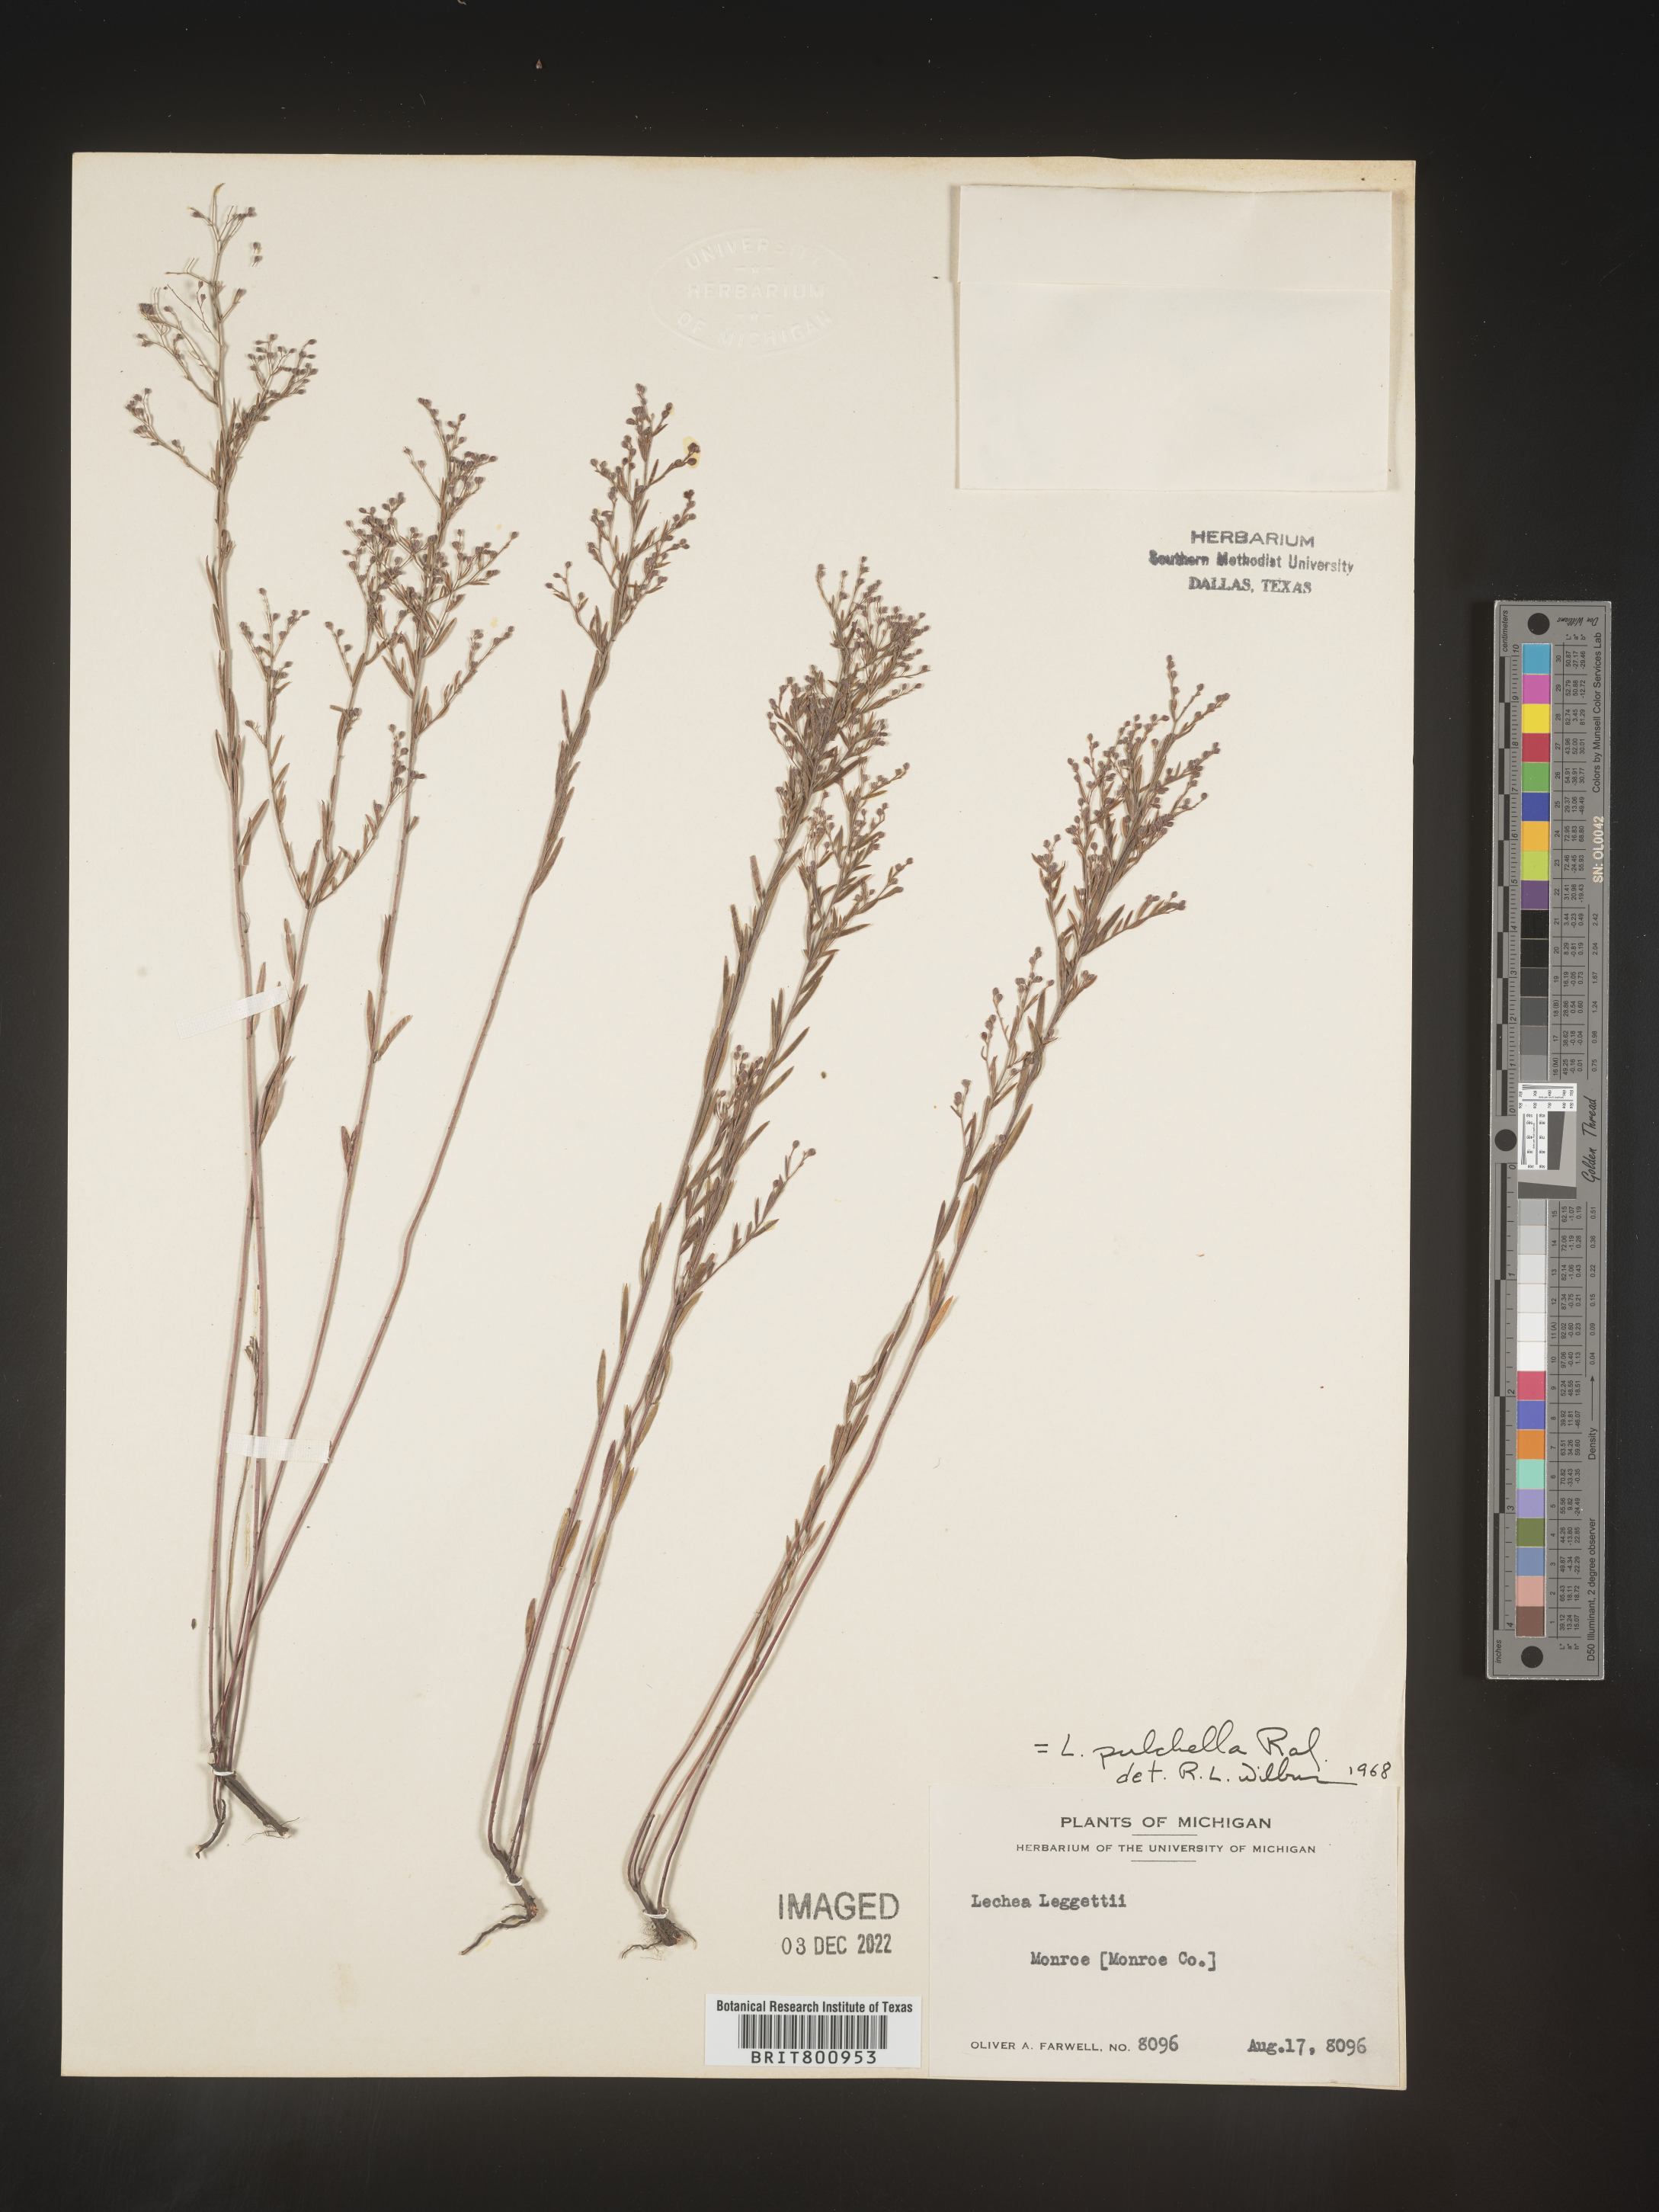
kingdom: Plantae
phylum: Tracheophyta
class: Magnoliopsida
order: Malvales
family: Cistaceae
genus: Lechea
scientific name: Lechea pulchella
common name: Leggett's pinweed
